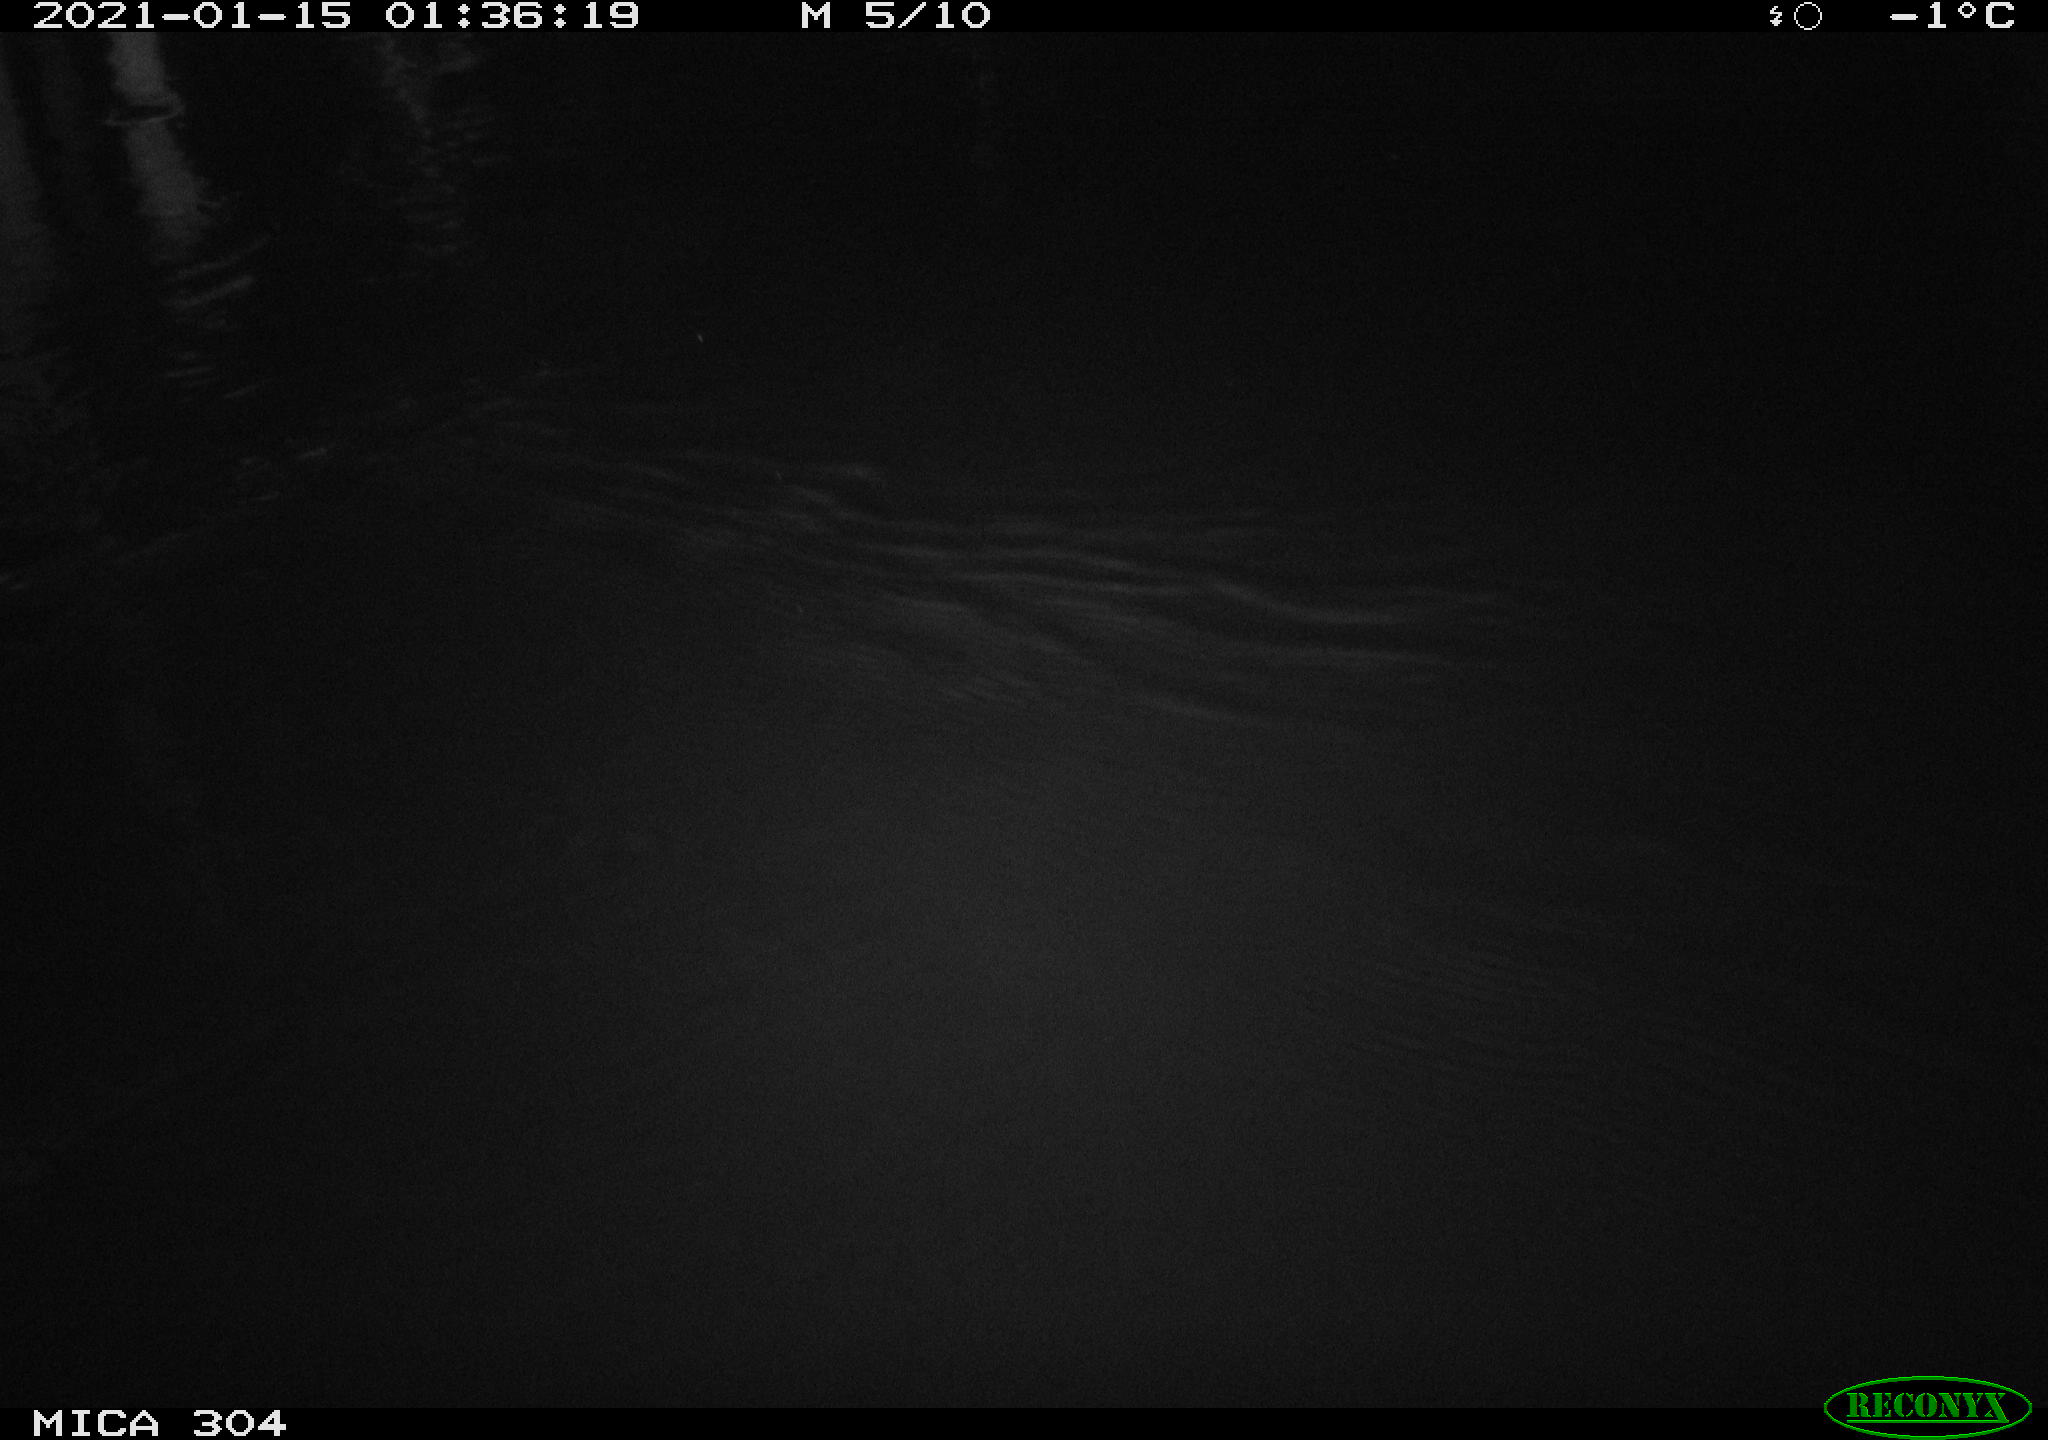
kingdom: Animalia
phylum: Chordata
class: Mammalia
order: Rodentia
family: Muridae
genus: Rattus
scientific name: Rattus norvegicus
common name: Brown rat
